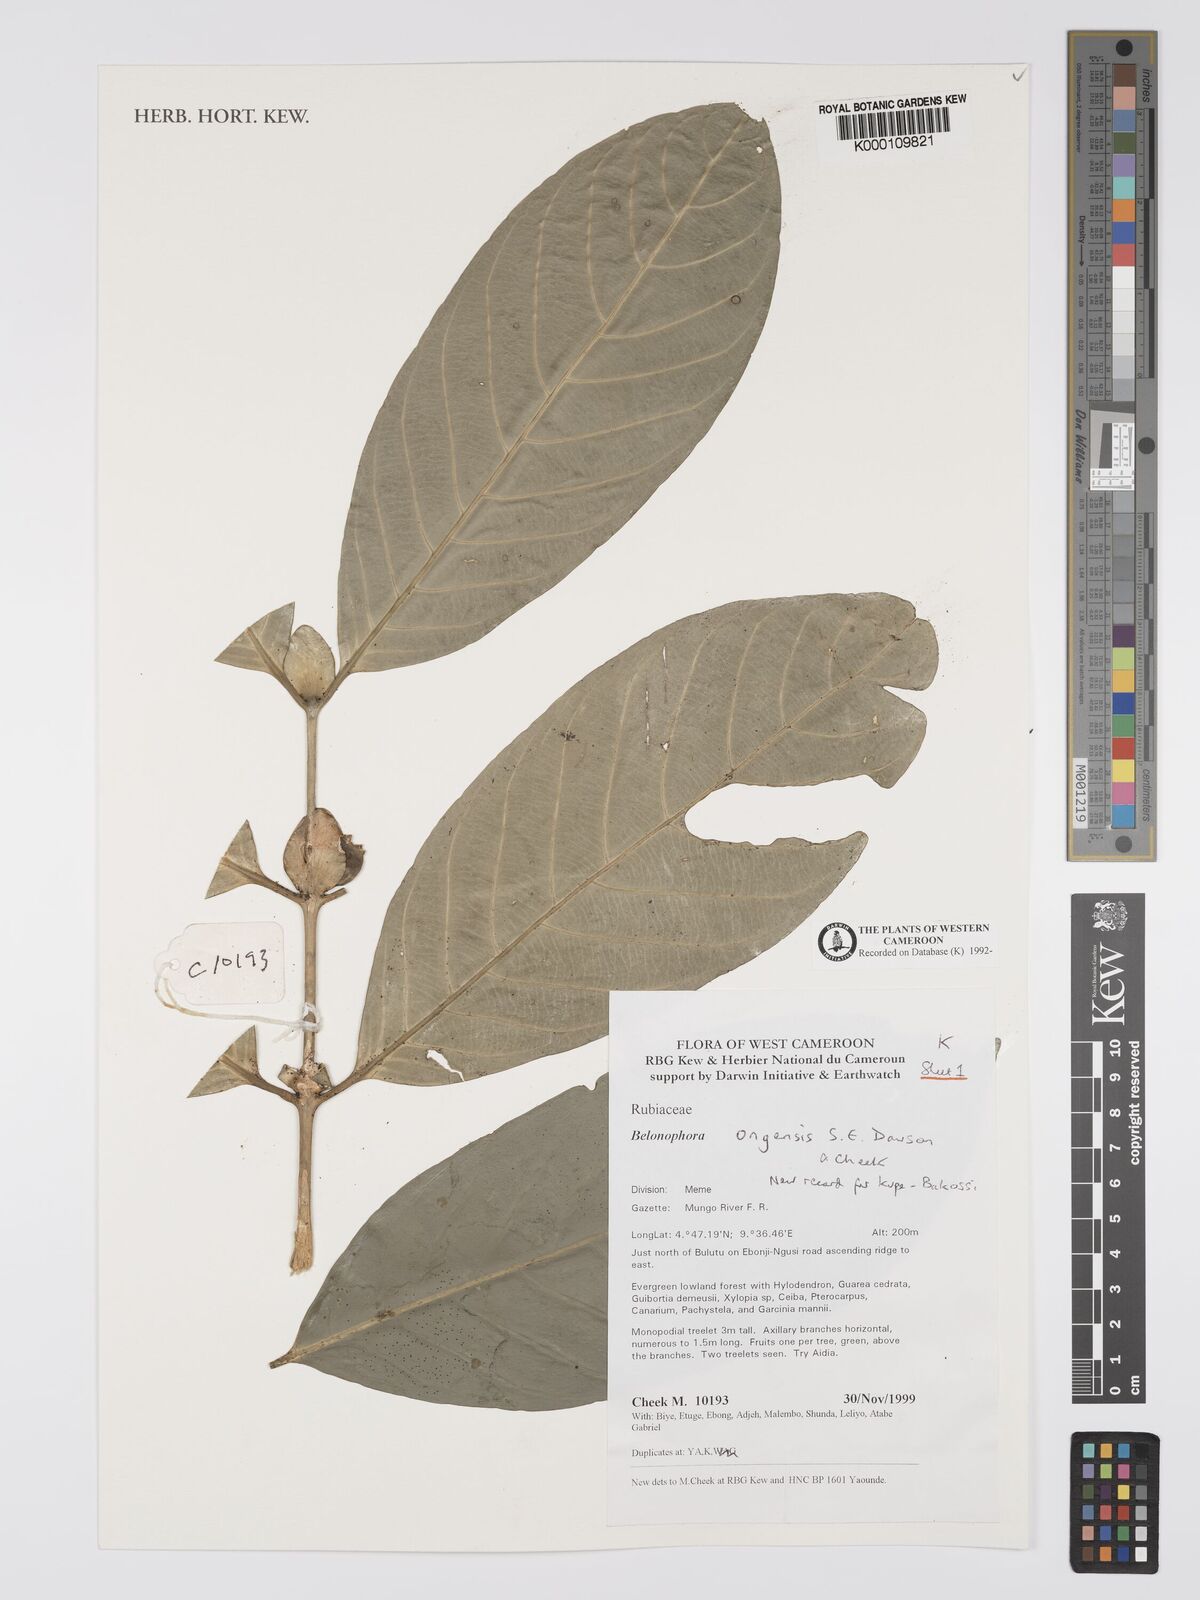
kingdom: Plantae
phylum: Tracheophyta
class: Magnoliopsida
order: Gentianales
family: Rubiaceae
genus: Belonophora
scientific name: Belonophora ongensis
